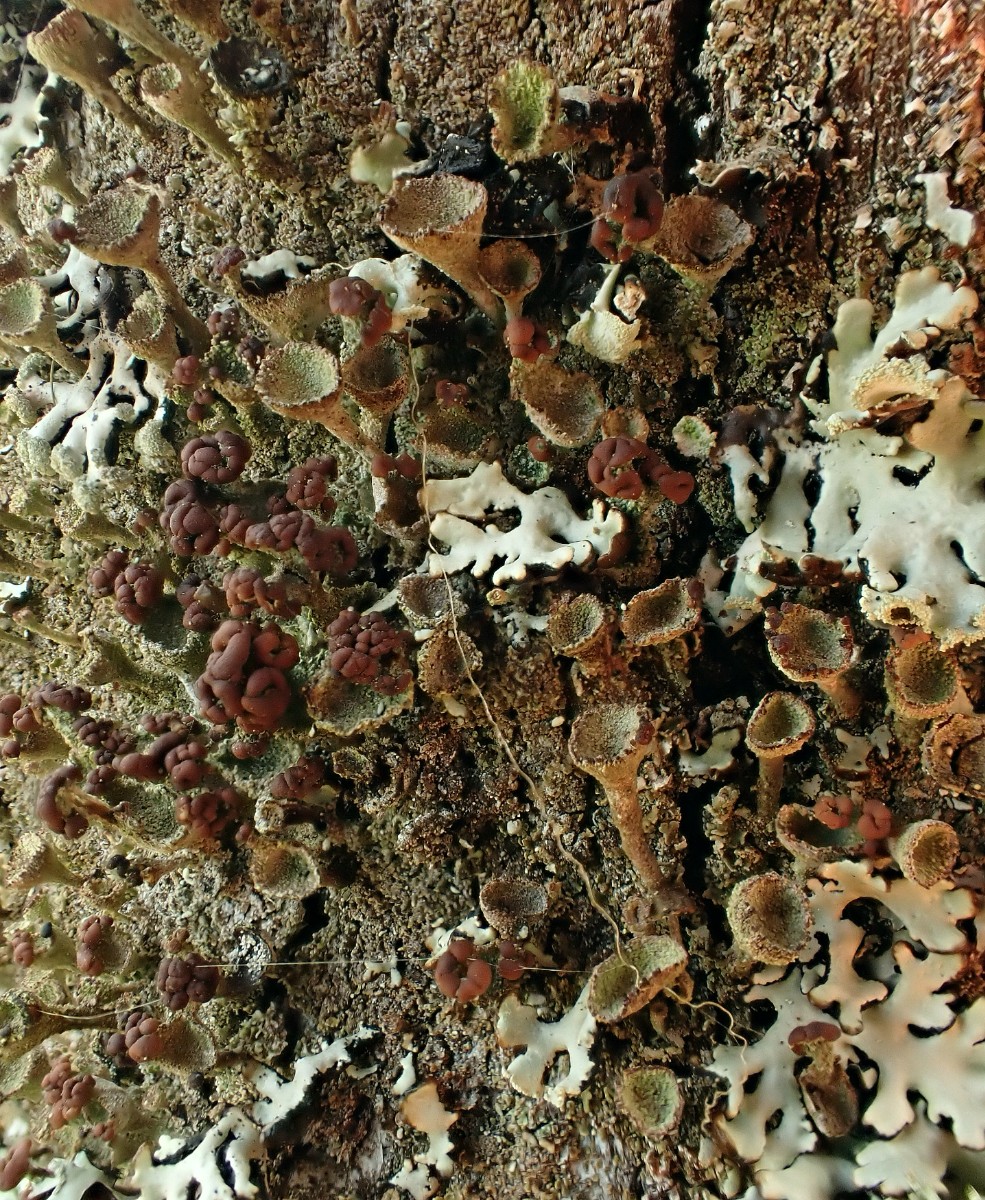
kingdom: Fungi
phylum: Ascomycota
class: Lecanoromycetes
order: Lecanorales
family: Cladoniaceae
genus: Cladonia
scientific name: Cladonia
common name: brungrøn bægerlav
